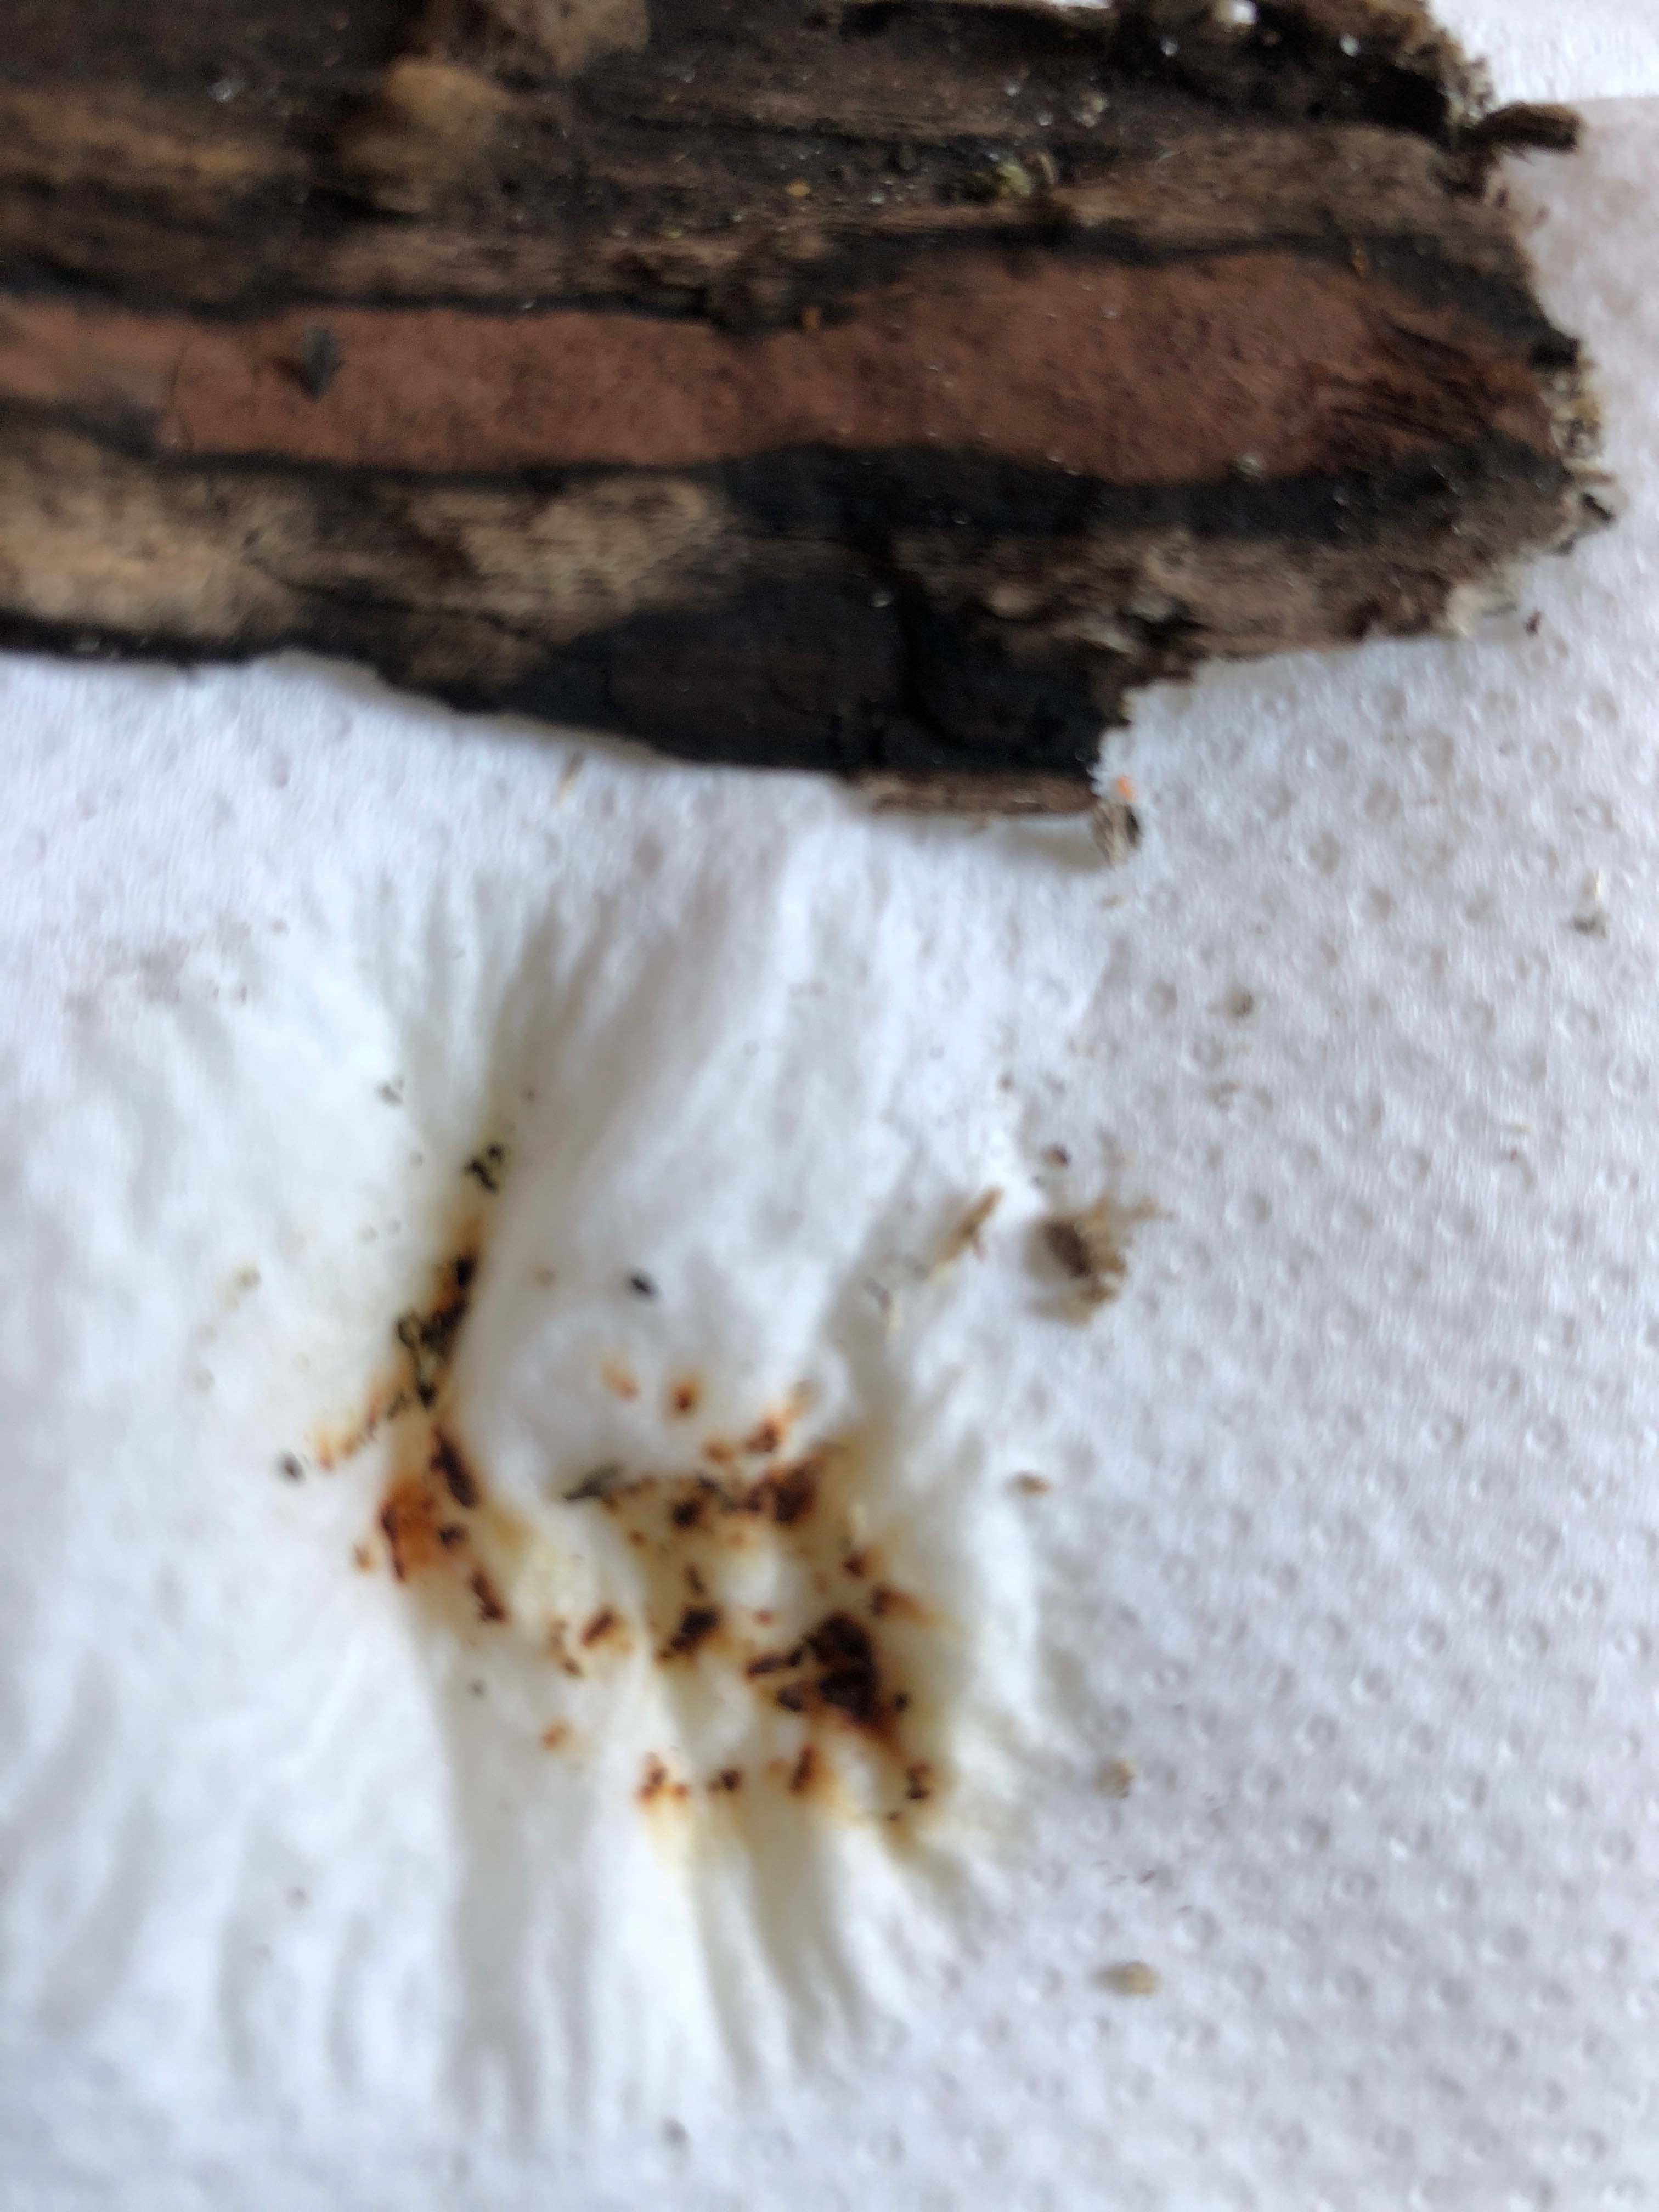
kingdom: Fungi
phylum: Ascomycota
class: Sordariomycetes
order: Xylariales
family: Hypoxylaceae
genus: Hypoxylon
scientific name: Hypoxylon petriniae
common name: nedsænket kulbær
